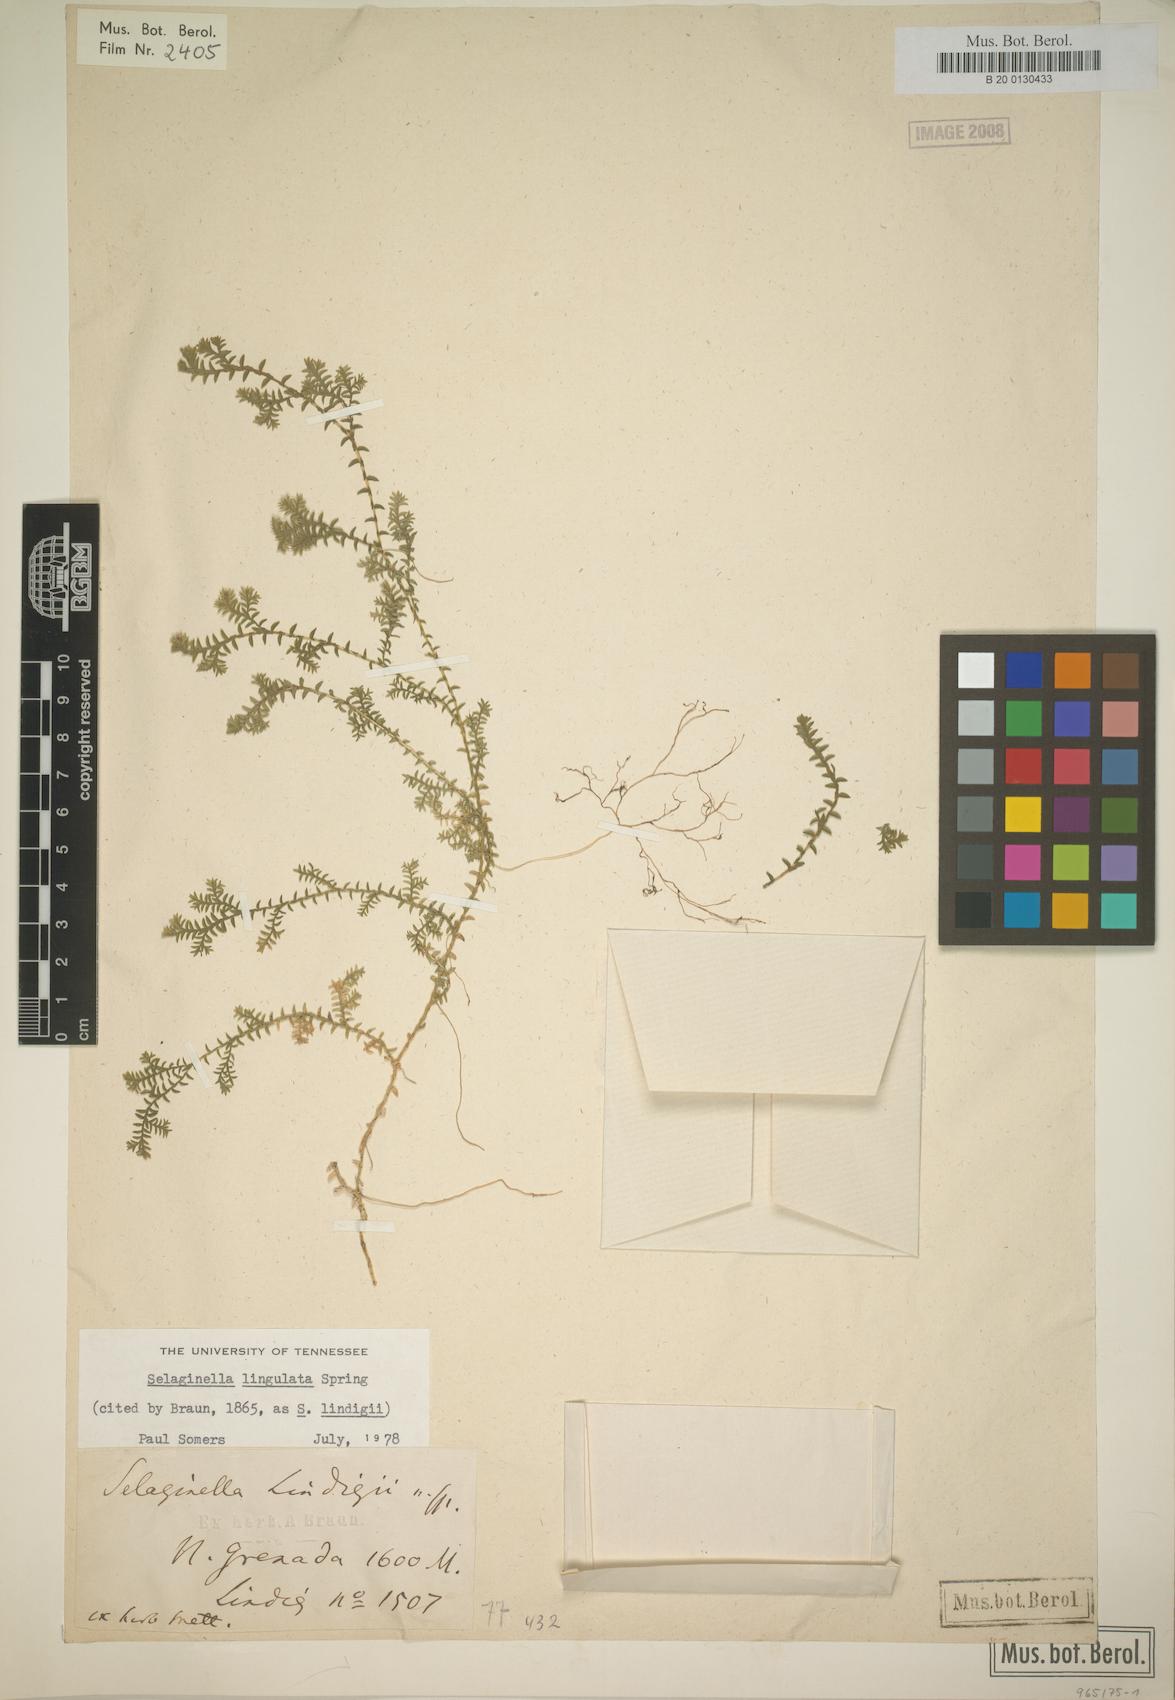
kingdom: Plantae
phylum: Tracheophyta
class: Lycopodiopsida
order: Selaginellales
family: Selaginellaceae
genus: Selaginella
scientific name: Selaginella lingulata
